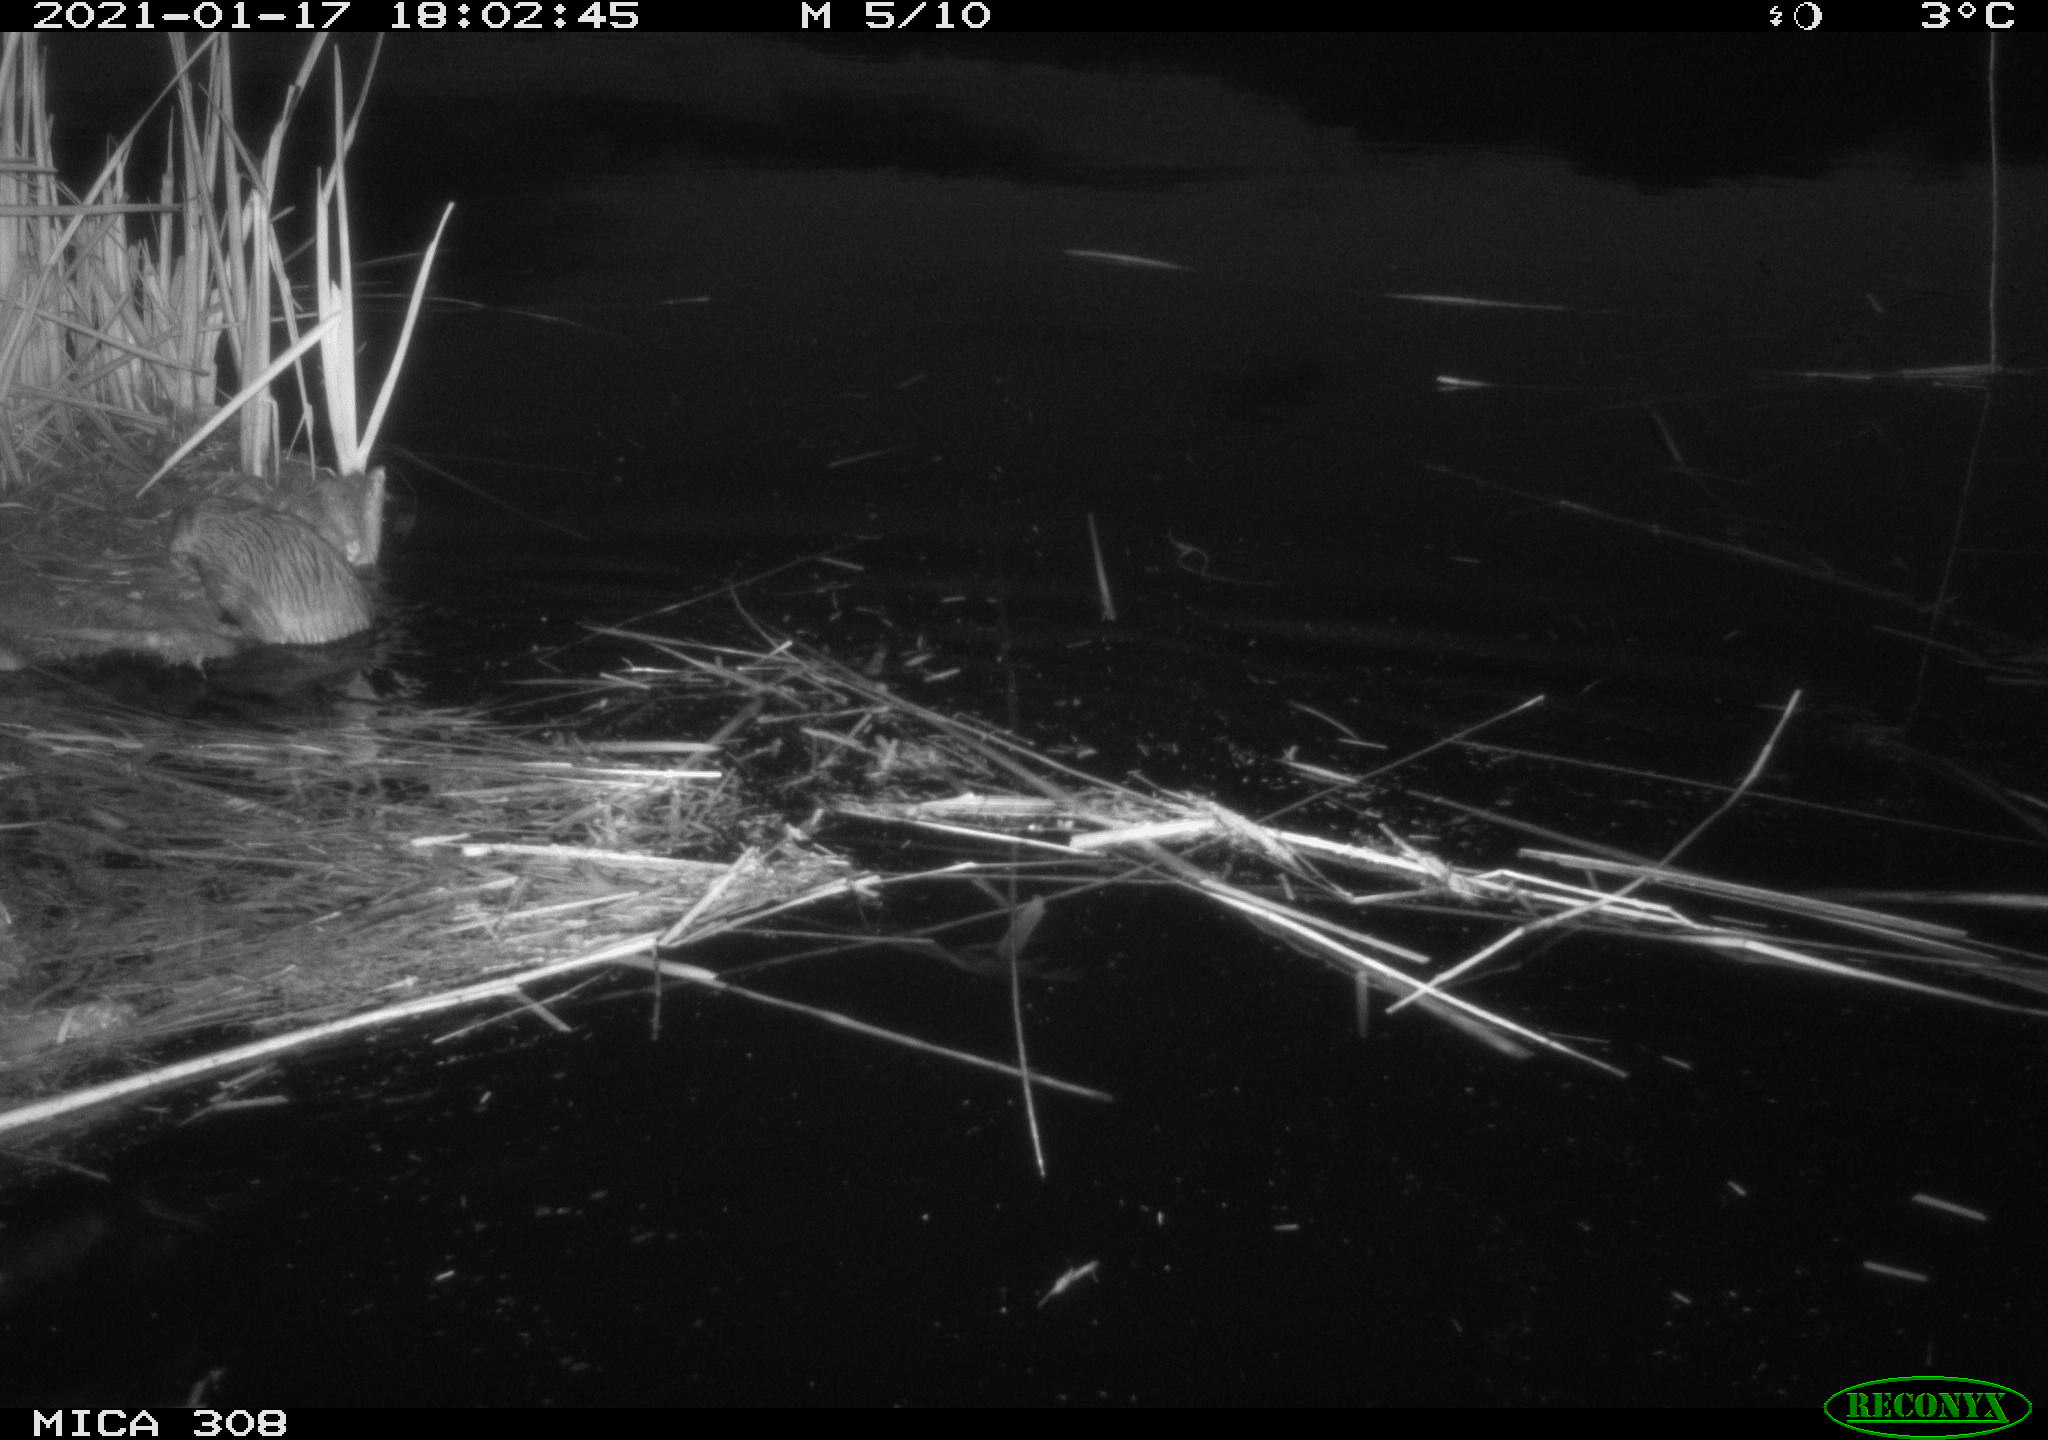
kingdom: Animalia
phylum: Chordata
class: Mammalia
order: Rodentia
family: Cricetidae
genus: Ondatra
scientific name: Ondatra zibethicus
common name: Muskrat
